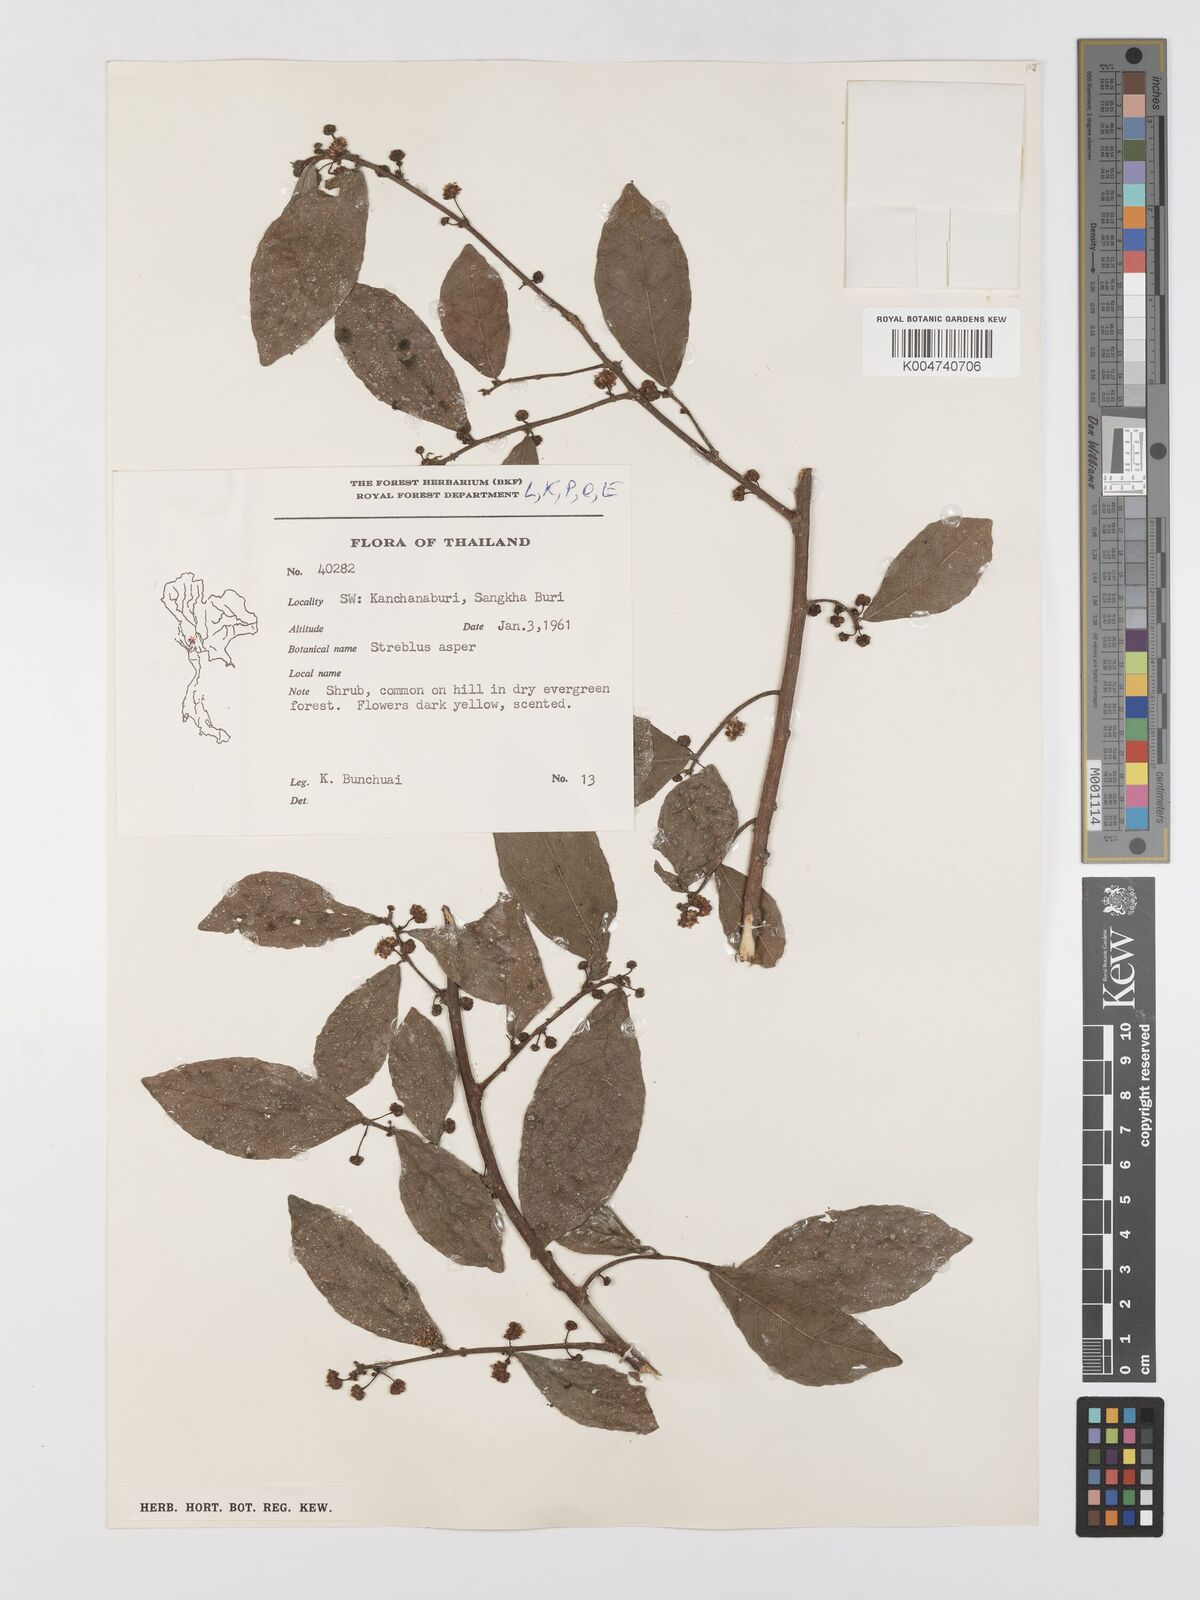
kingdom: Plantae
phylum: Tracheophyta
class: Magnoliopsida
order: Rosales
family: Moraceae
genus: Streblus
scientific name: Streblus asper
